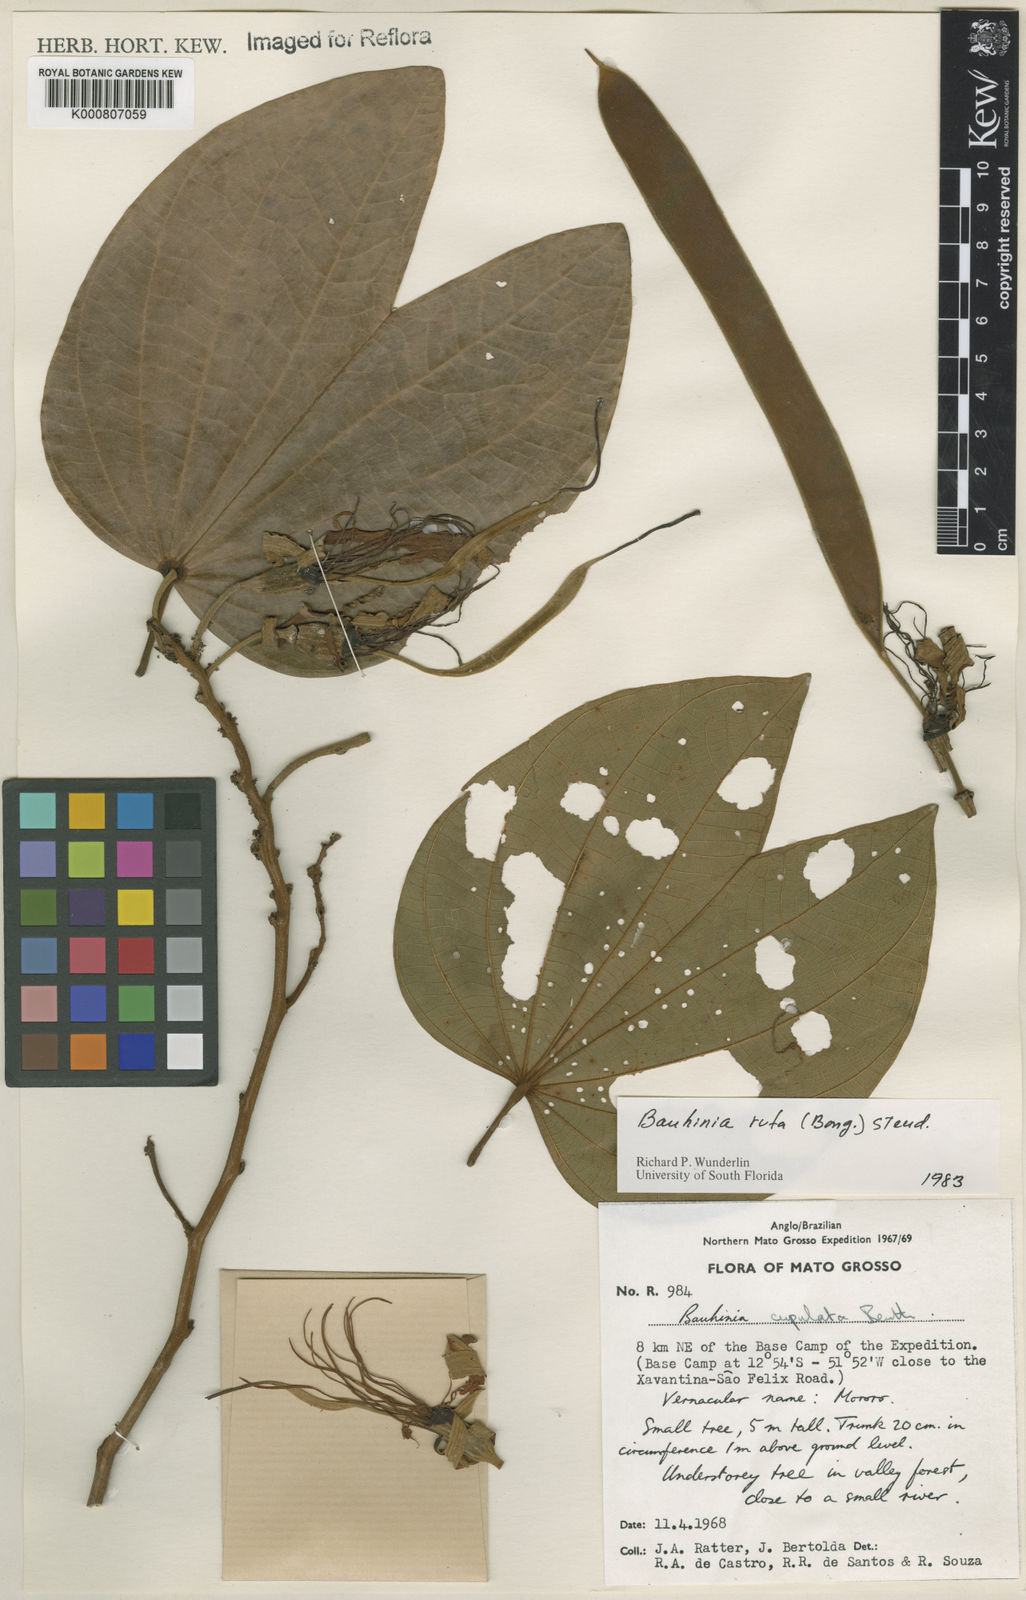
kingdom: Plantae
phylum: Tracheophyta
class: Magnoliopsida
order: Fabales
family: Fabaceae
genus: Bauhinia
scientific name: Bauhinia rufa
